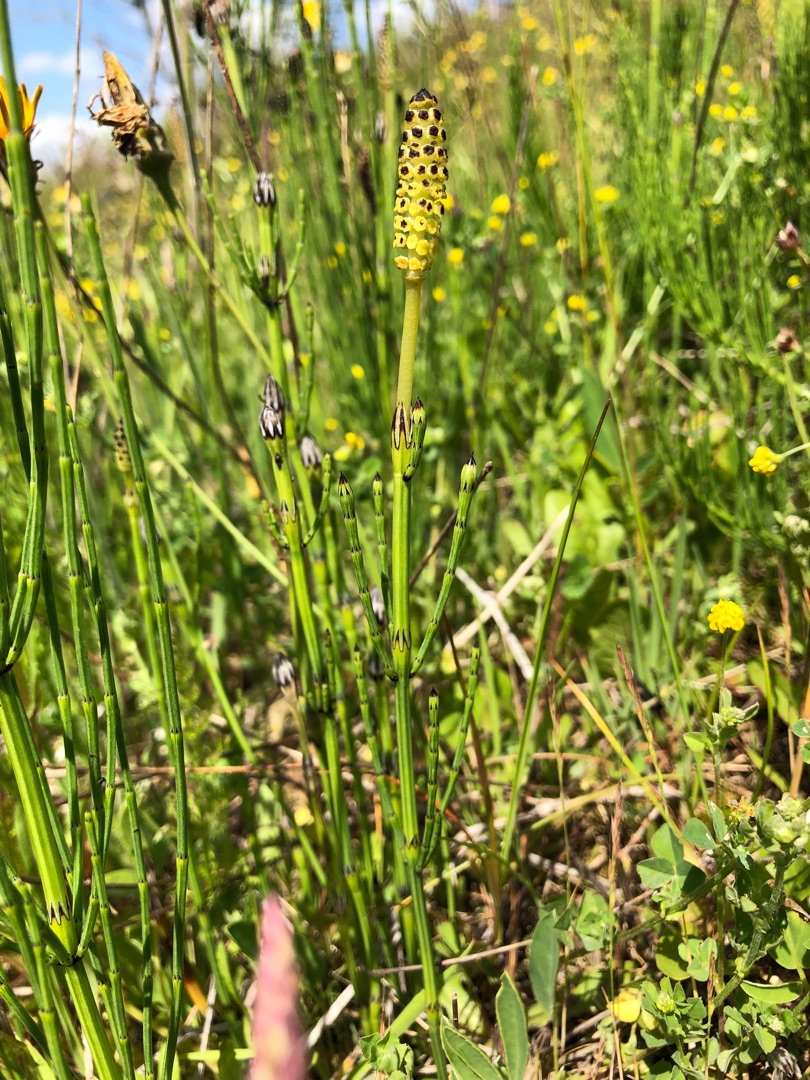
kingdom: Plantae
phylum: Tracheophyta
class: Polypodiopsida
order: Equisetales
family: Equisetaceae
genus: Equisetum
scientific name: Equisetum palustre
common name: Kær-padderok
